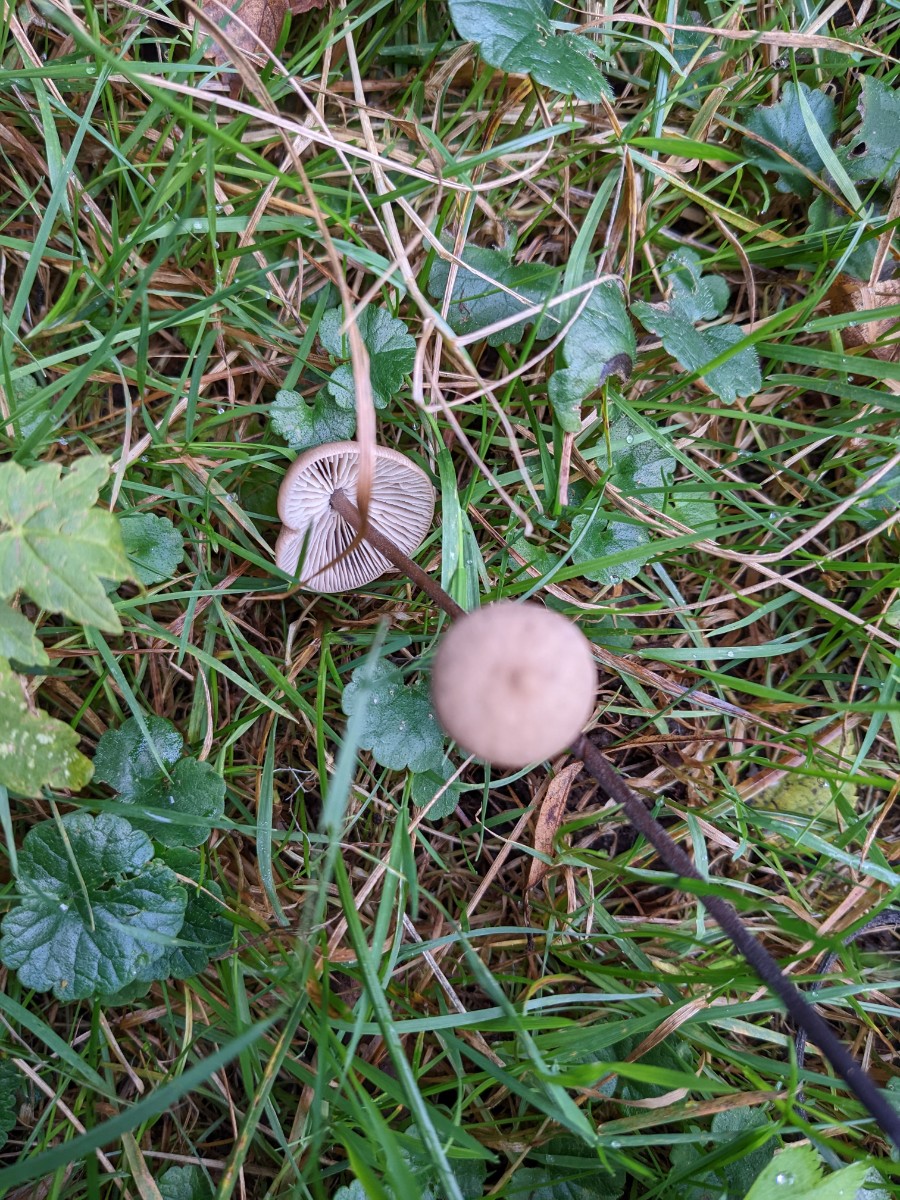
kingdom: Fungi
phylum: Basidiomycota
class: Agaricomycetes
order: Agaricales
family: Omphalotaceae
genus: Mycetinis
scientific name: Mycetinis alliaceus
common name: stor løghat
